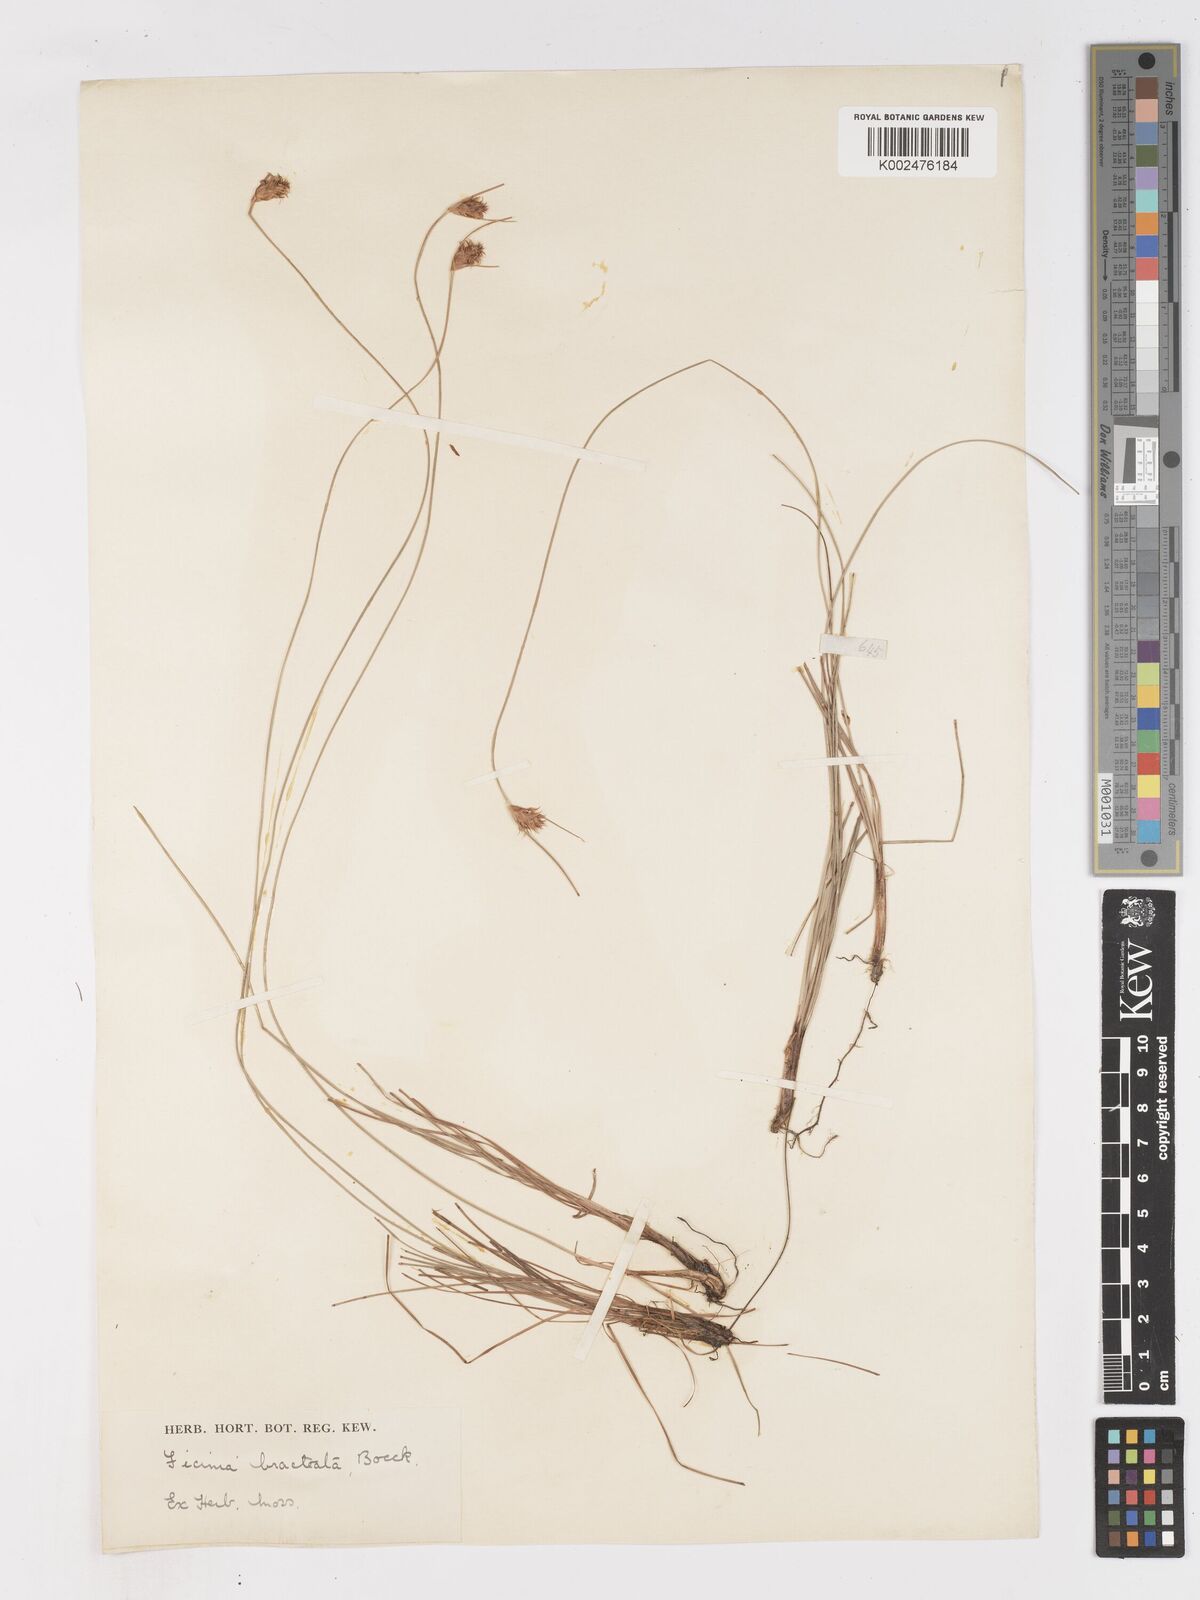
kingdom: Plantae
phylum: Tracheophyta
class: Liliopsida
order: Poales
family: Cyperaceae
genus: Ficinia
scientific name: Ficinia nigrescens
